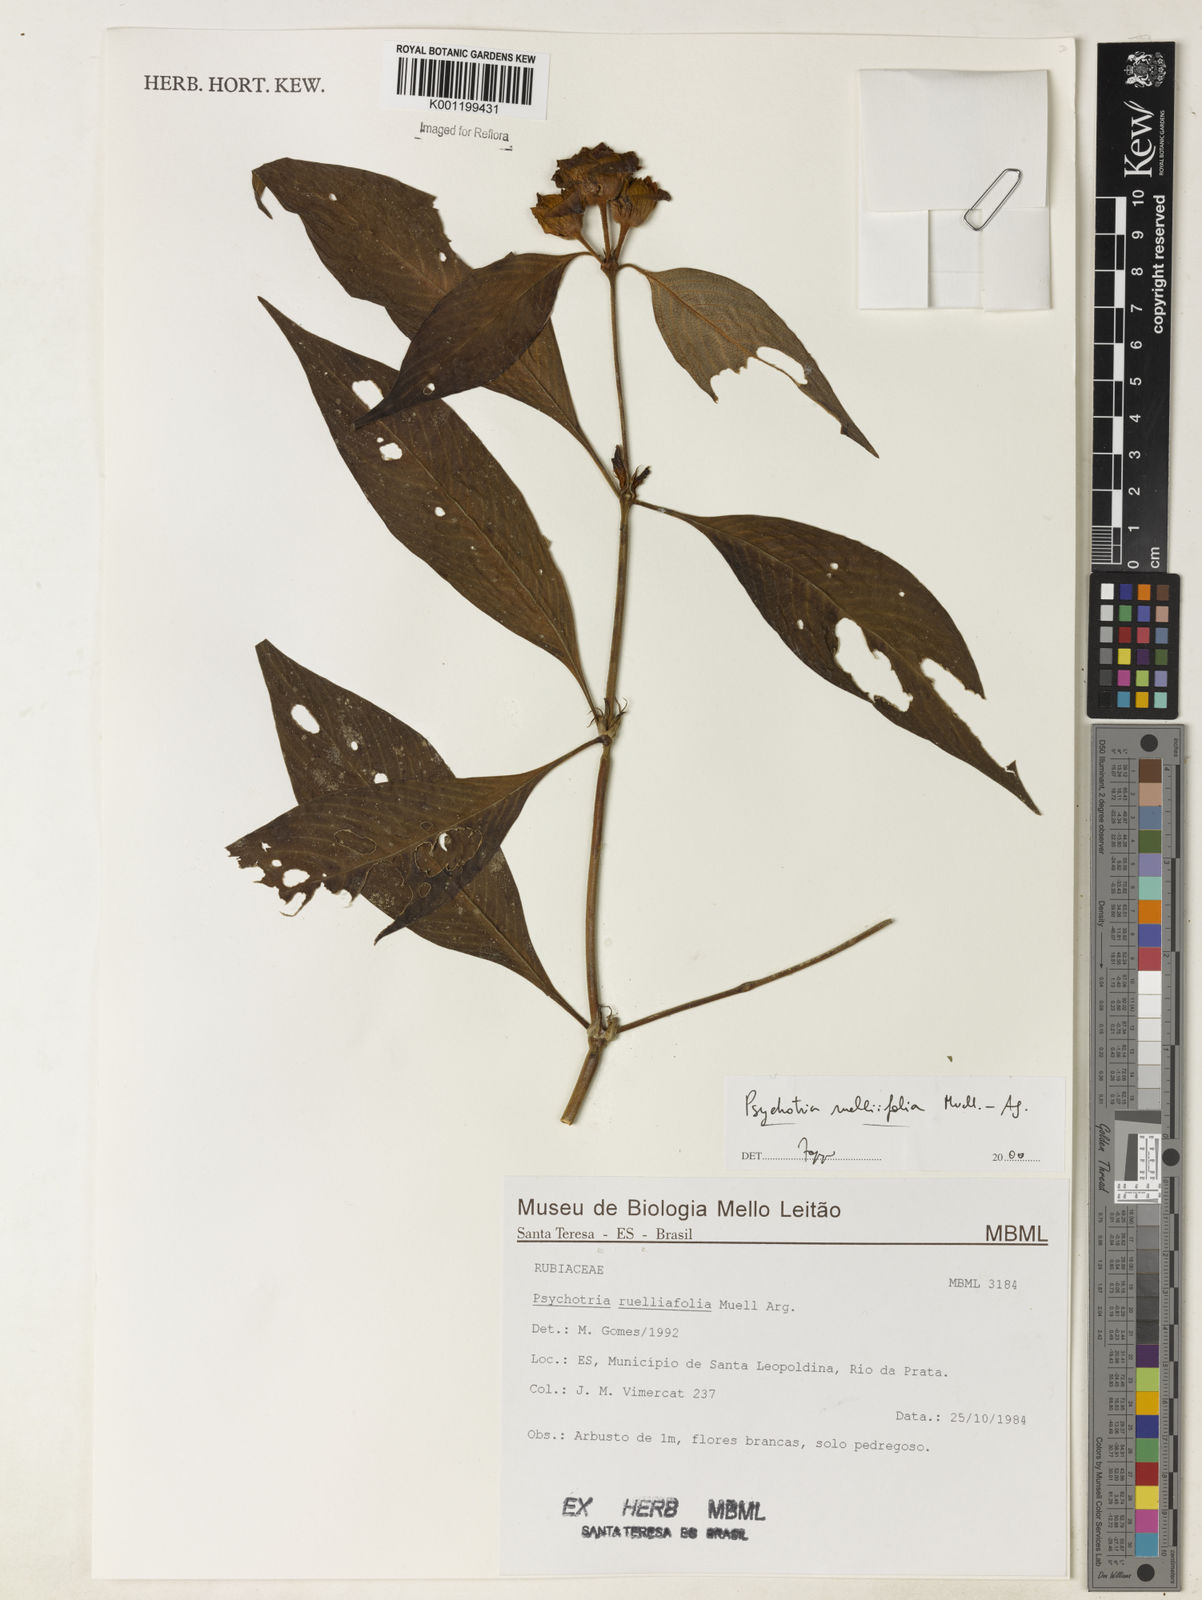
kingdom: Plantae
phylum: Tracheophyta
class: Magnoliopsida
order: Gentianales
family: Rubiaceae
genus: Psychotria
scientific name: Psychotria
